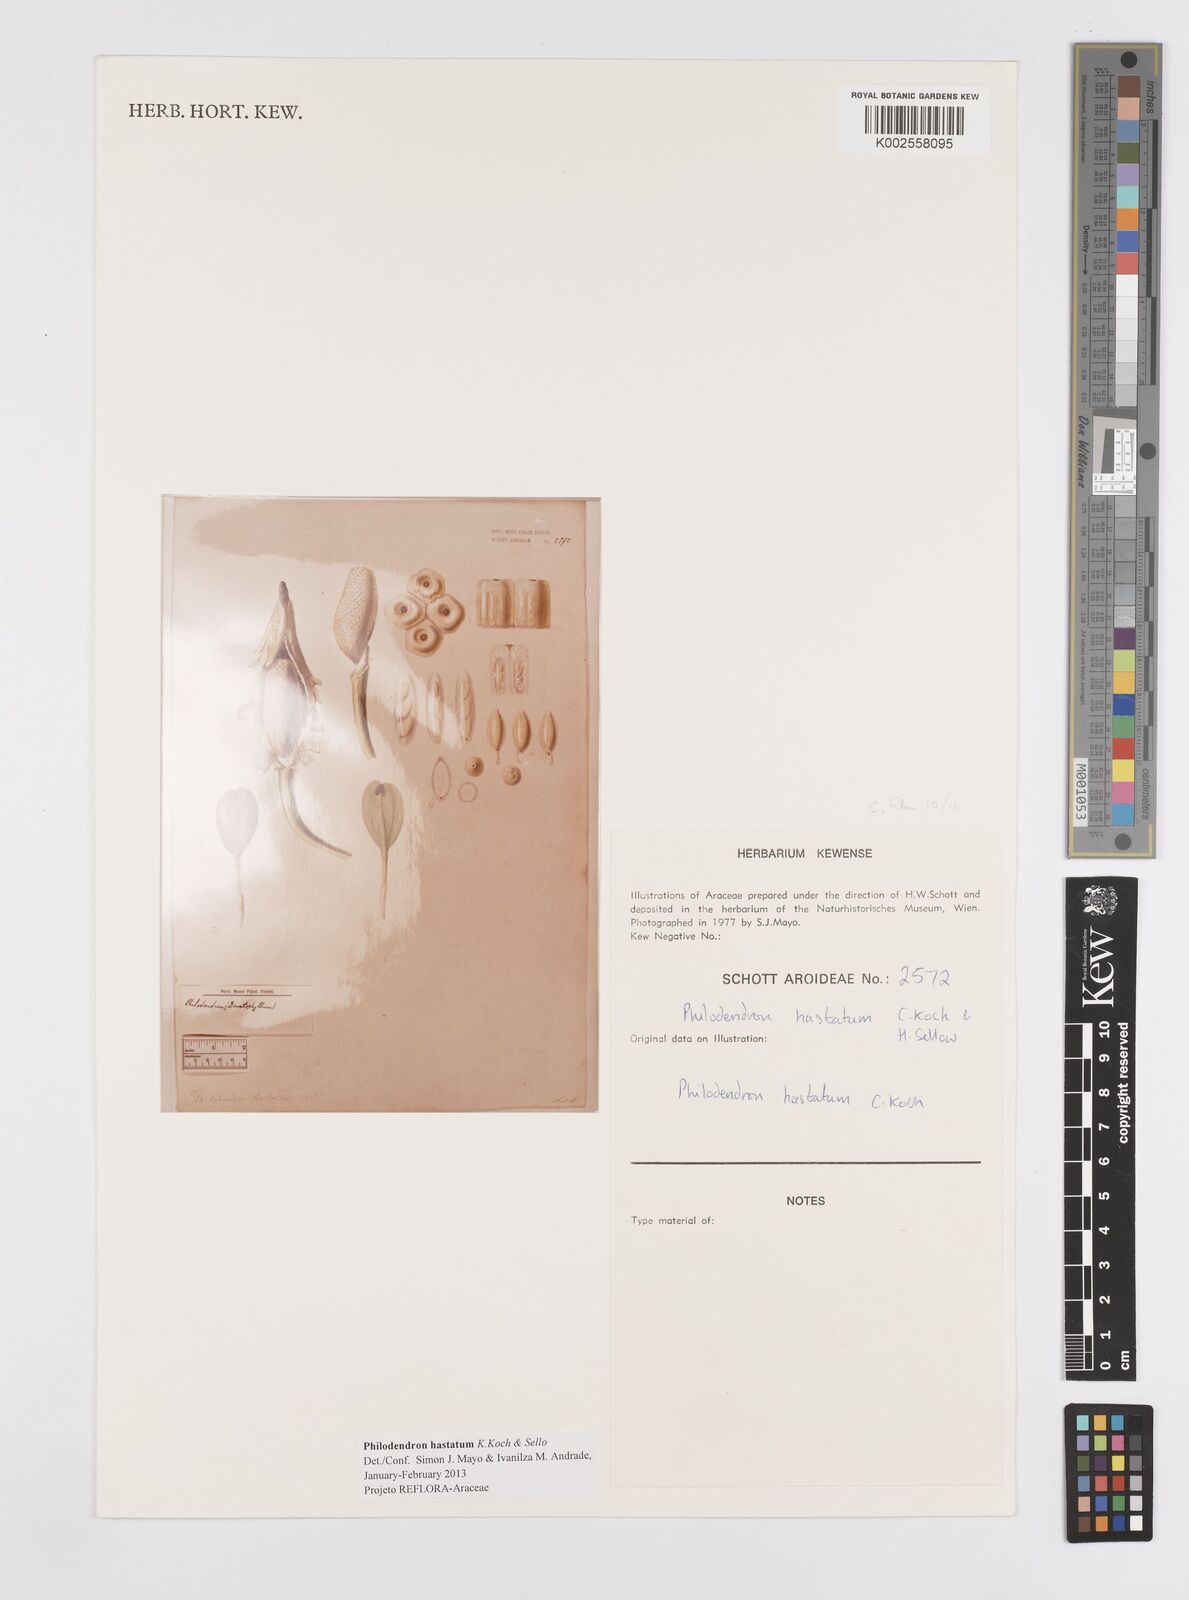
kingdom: Plantae
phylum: Tracheophyta
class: Liliopsida
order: Alismatales
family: Araceae
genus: Philodendron
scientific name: Philodendron hastatum
